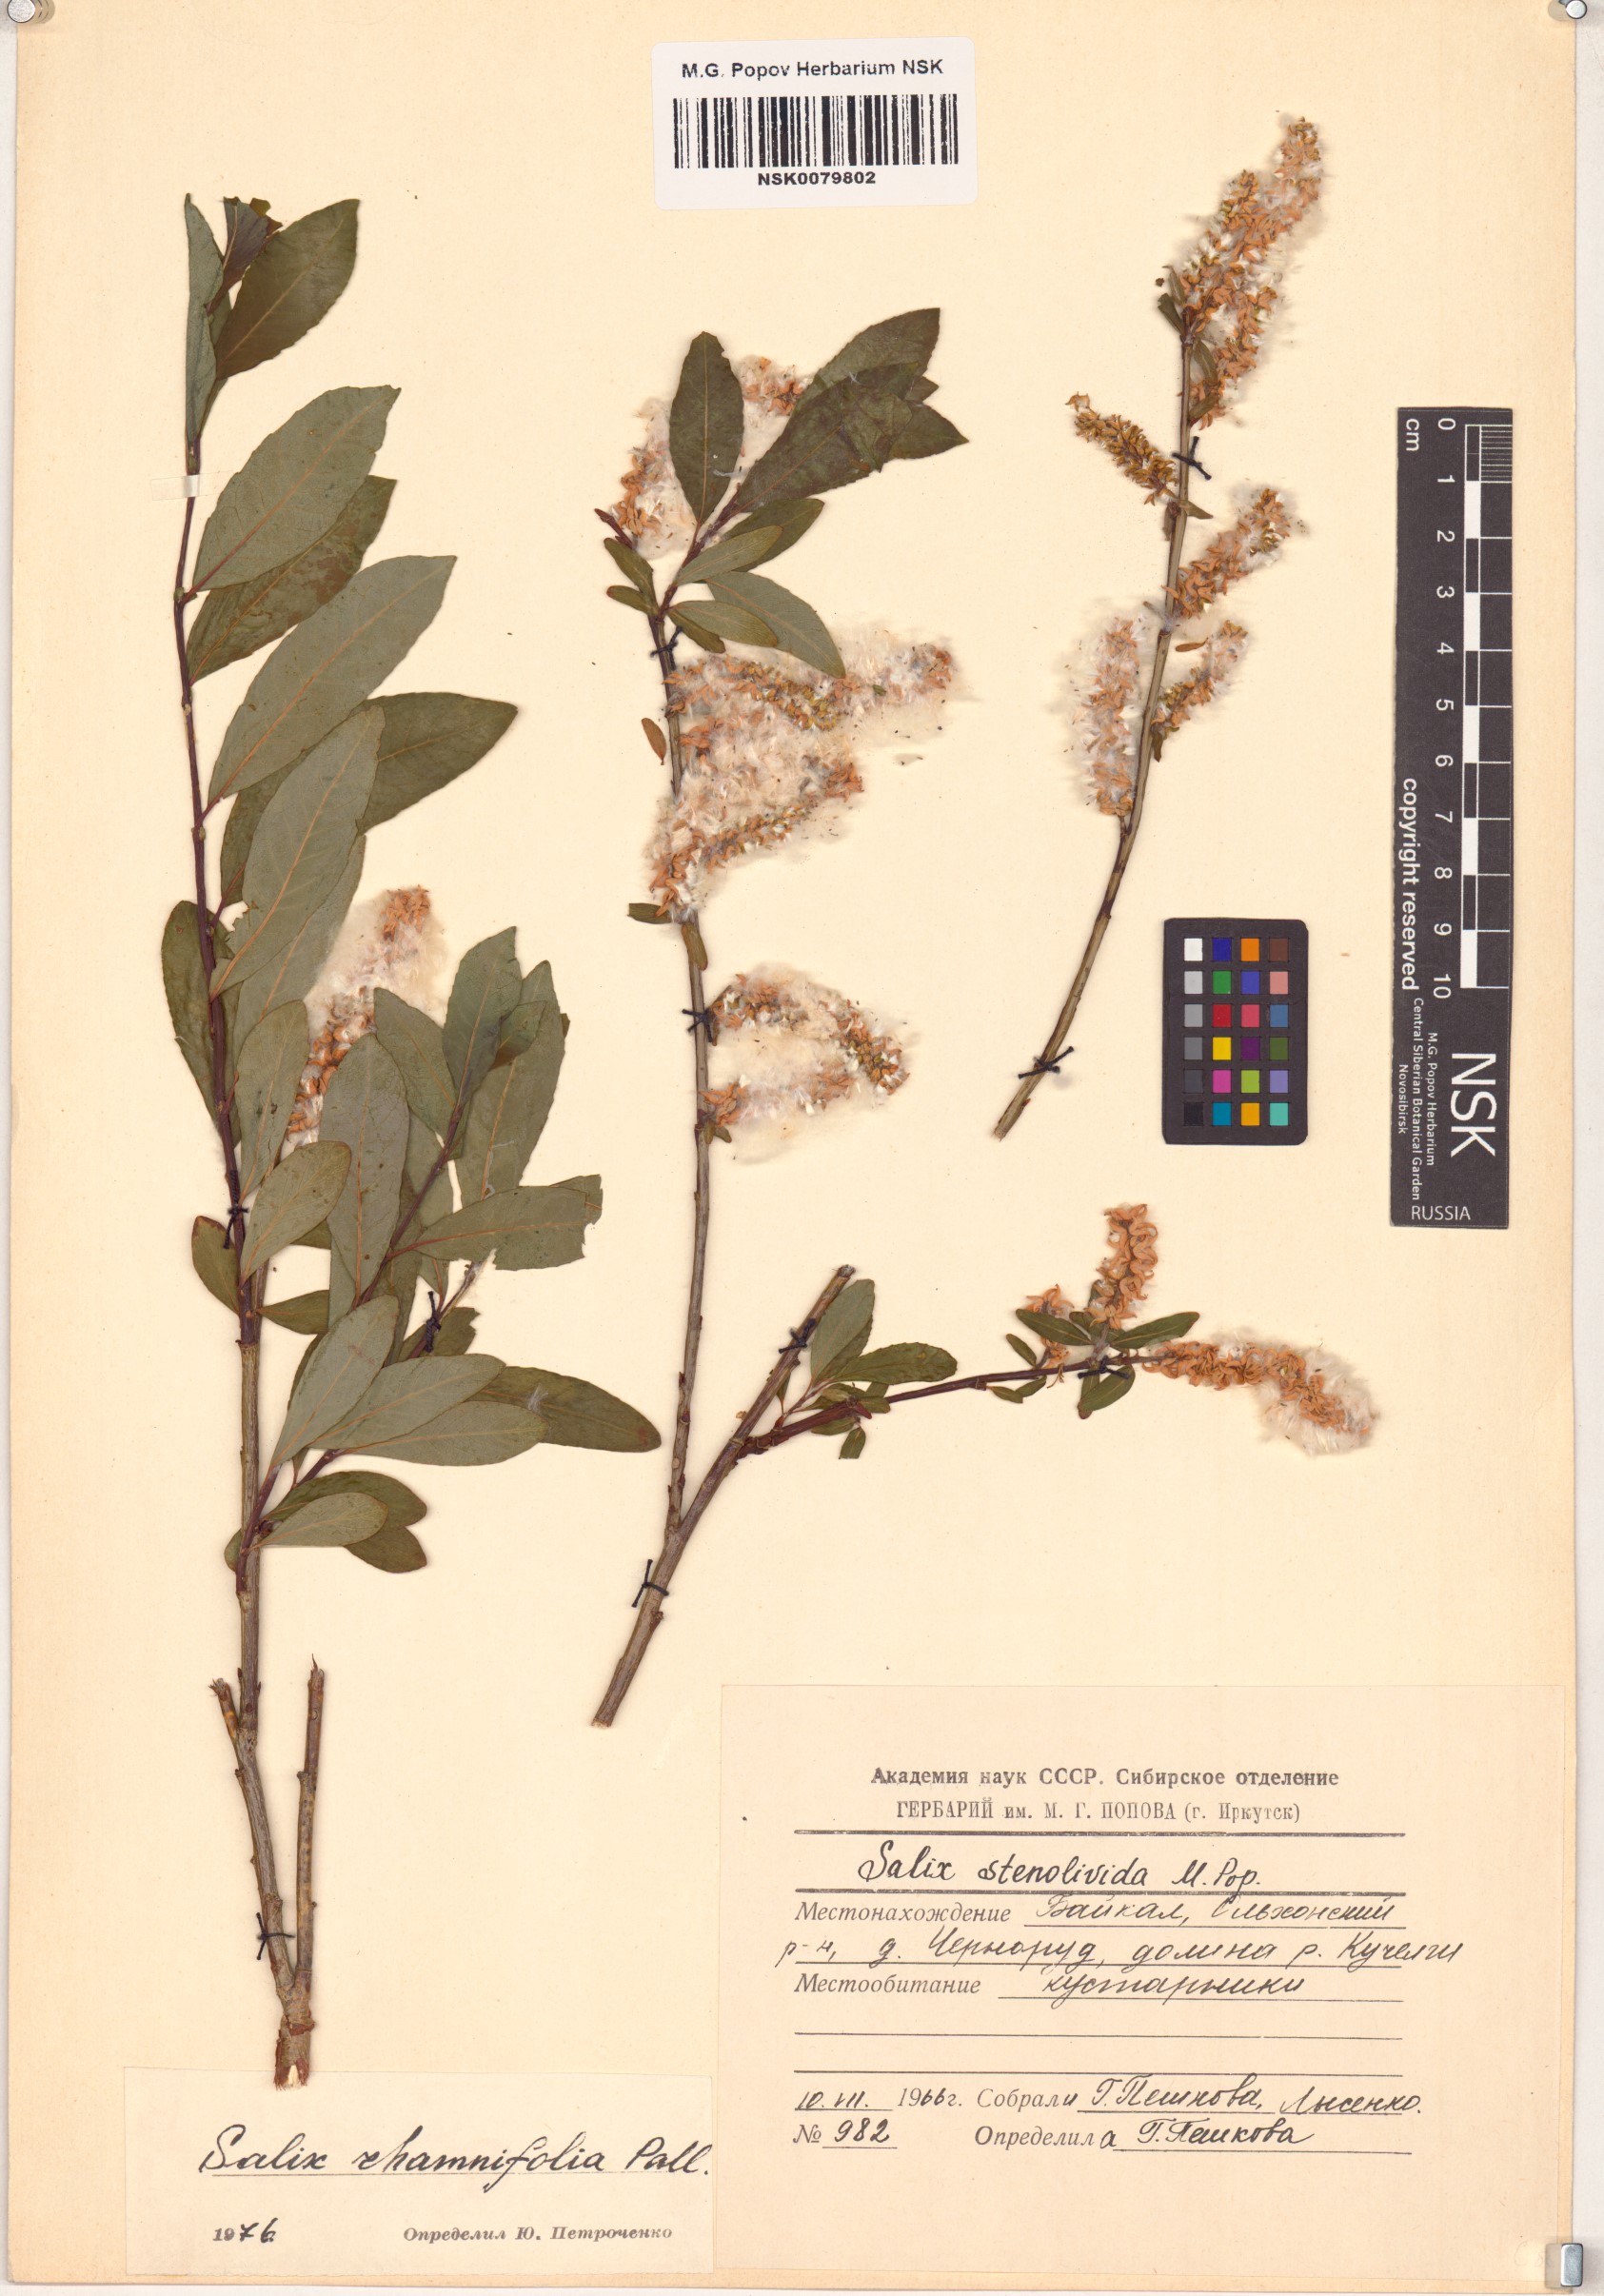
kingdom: Plantae
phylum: Tracheophyta
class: Magnoliopsida
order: Malpighiales
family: Salicaceae
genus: Salix
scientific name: Salix rhamnifolia
